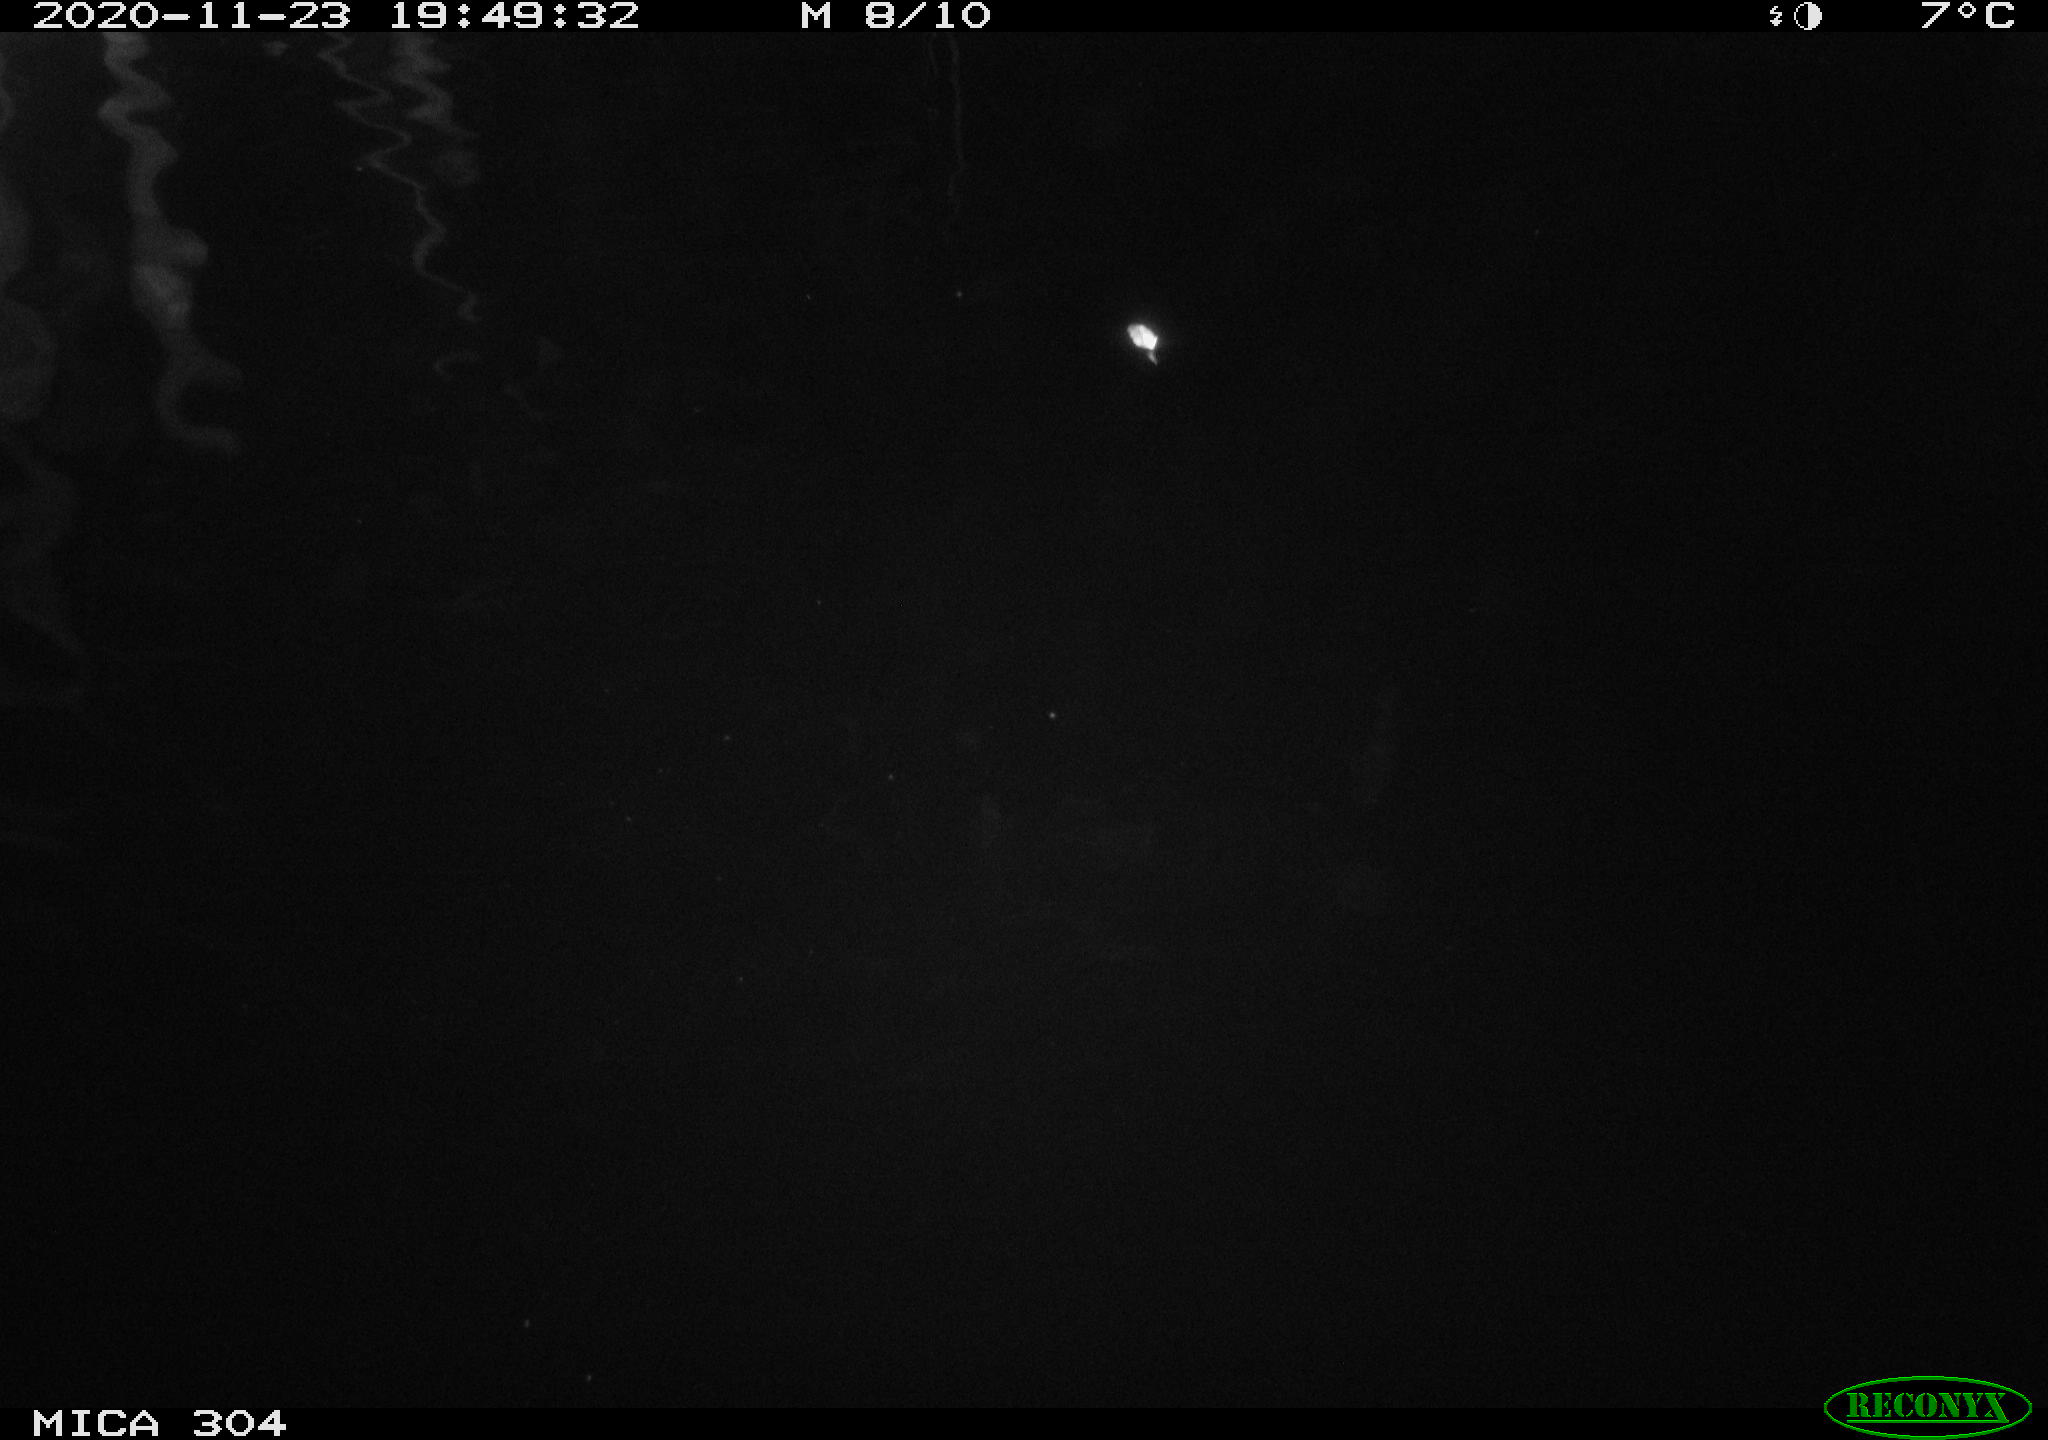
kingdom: Animalia
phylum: Chordata
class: Mammalia
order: Rodentia
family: Cricetidae
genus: Ondatra
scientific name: Ondatra zibethicus
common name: Muskrat
